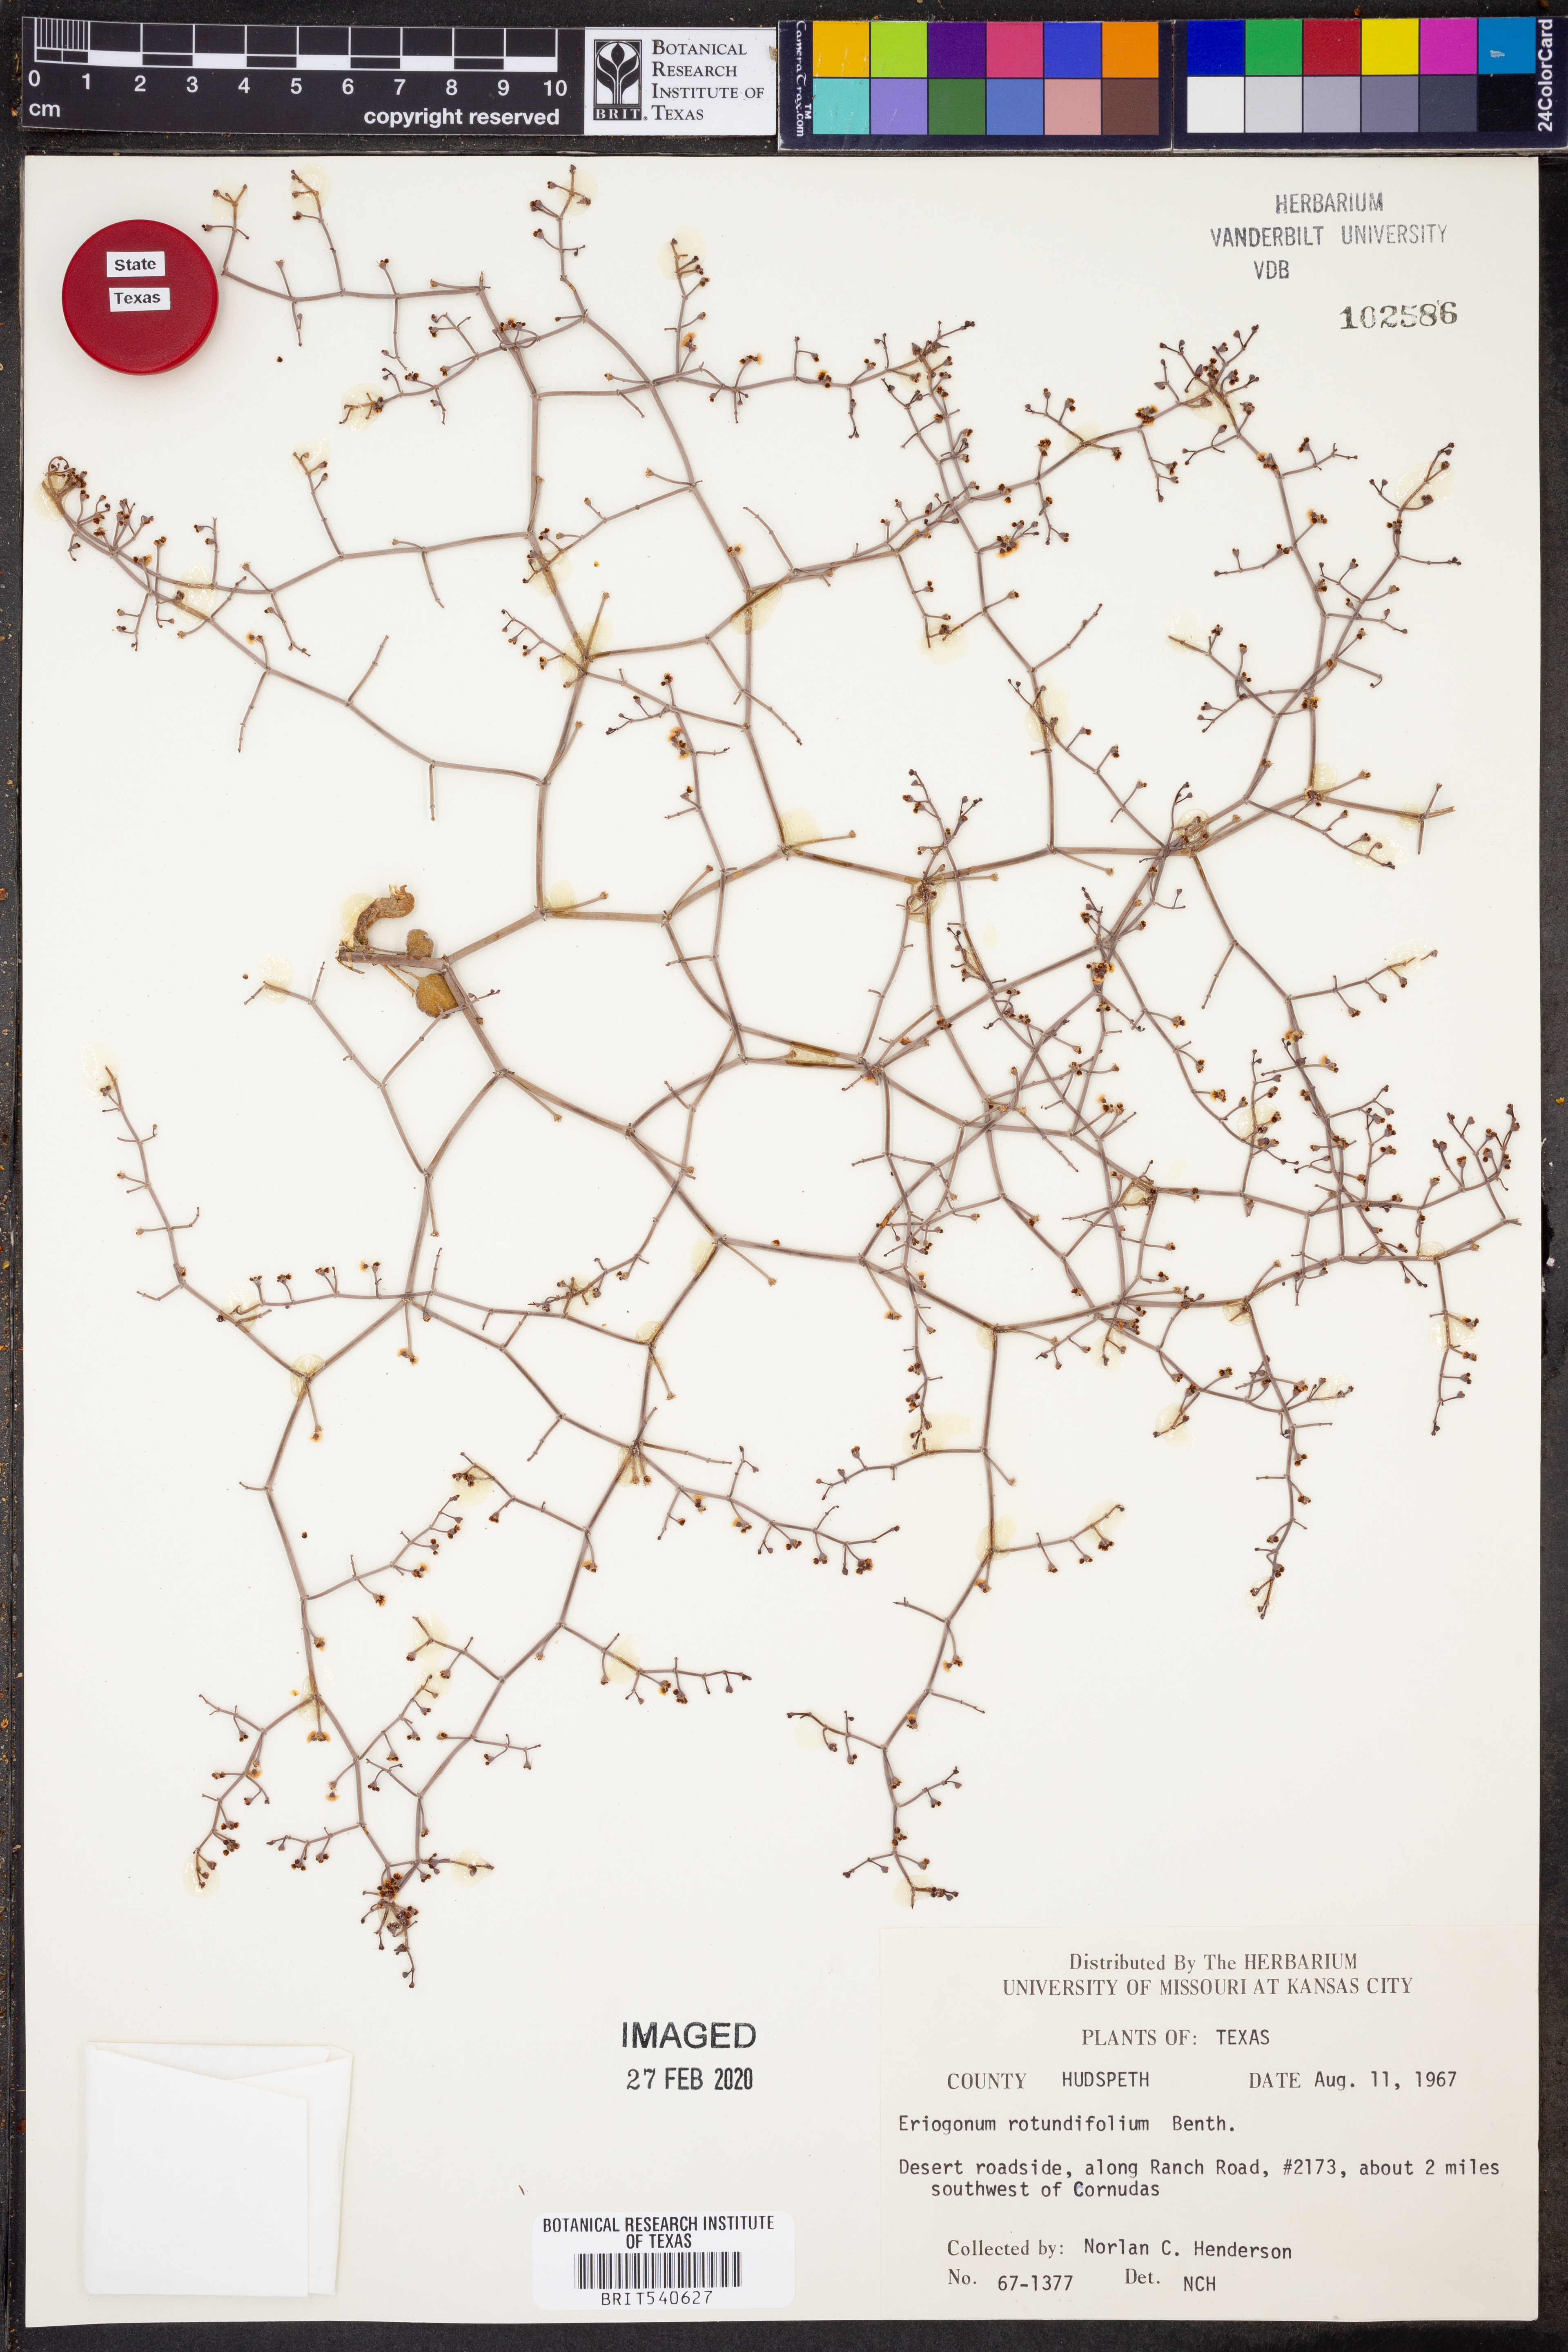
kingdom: Plantae
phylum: Tracheophyta
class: Magnoliopsida
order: Caryophyllales
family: Polygonaceae
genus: Eriogonum
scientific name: Eriogonum rotundifolium
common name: Round-leaf wild buckwheat
